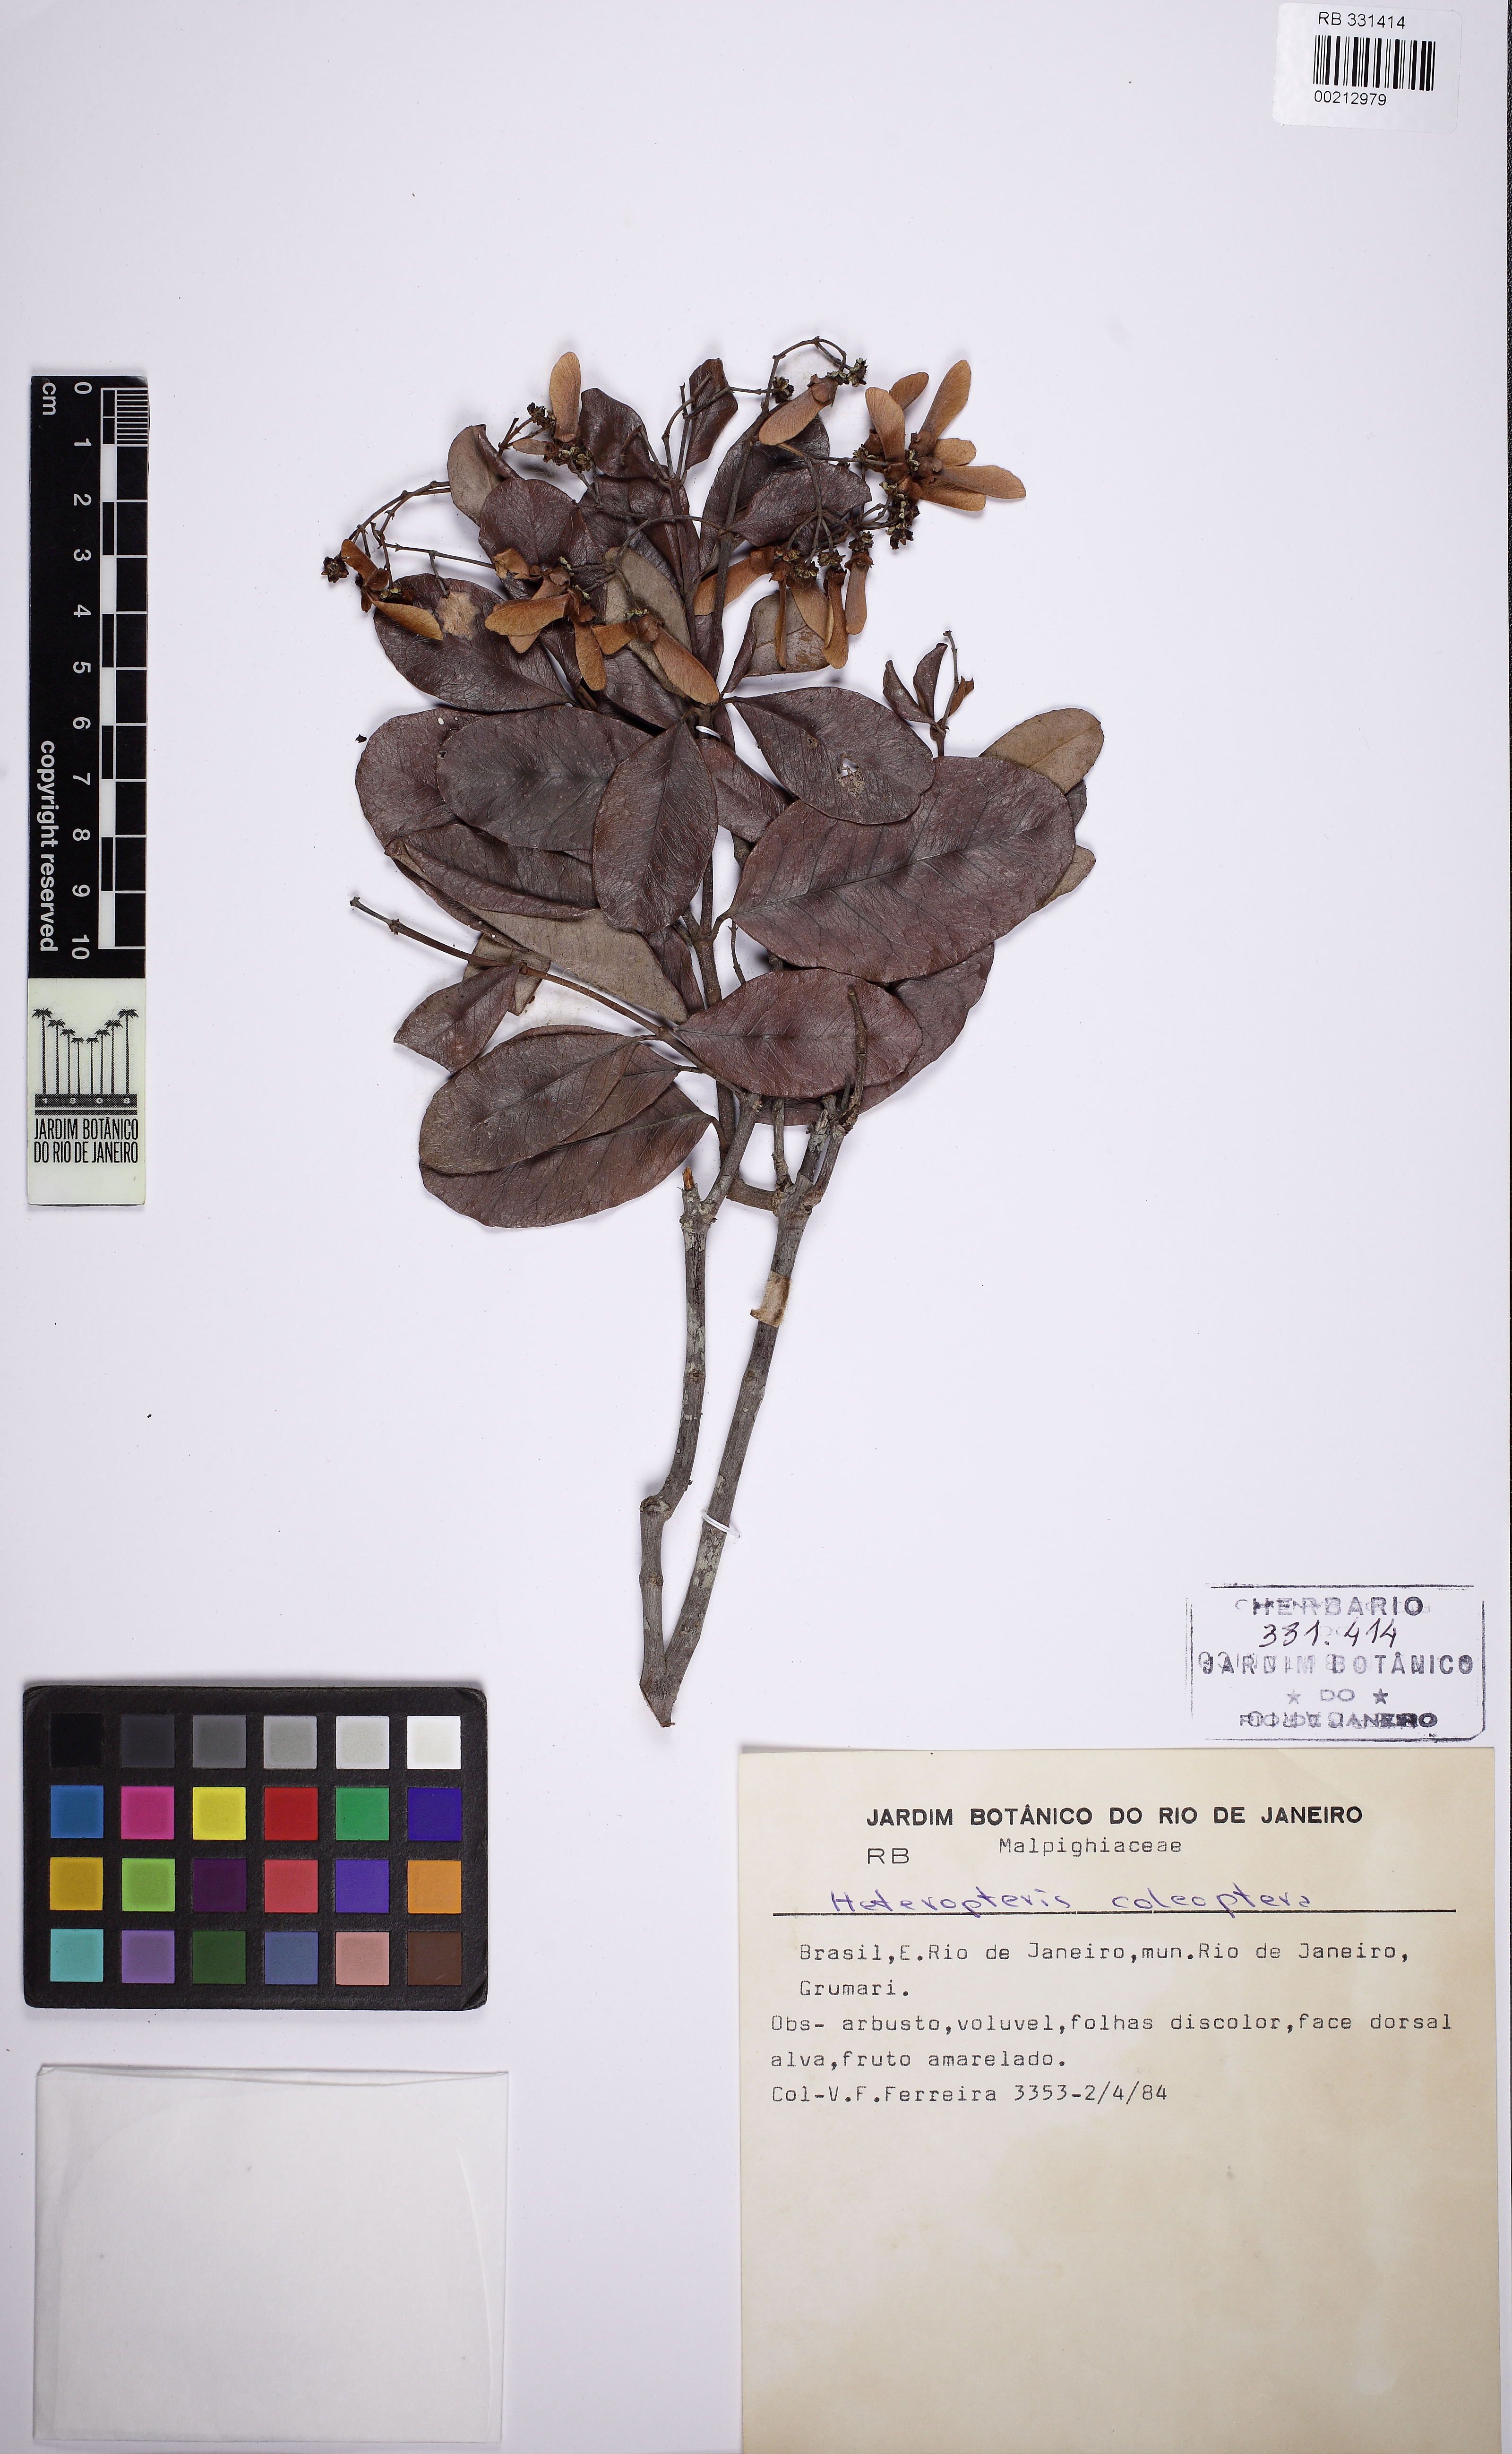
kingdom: Plantae
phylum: Tracheophyta
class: Magnoliopsida
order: Malpighiales
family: Malpighiaceae
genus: Heteropterys
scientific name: Heteropterys coleoptera
